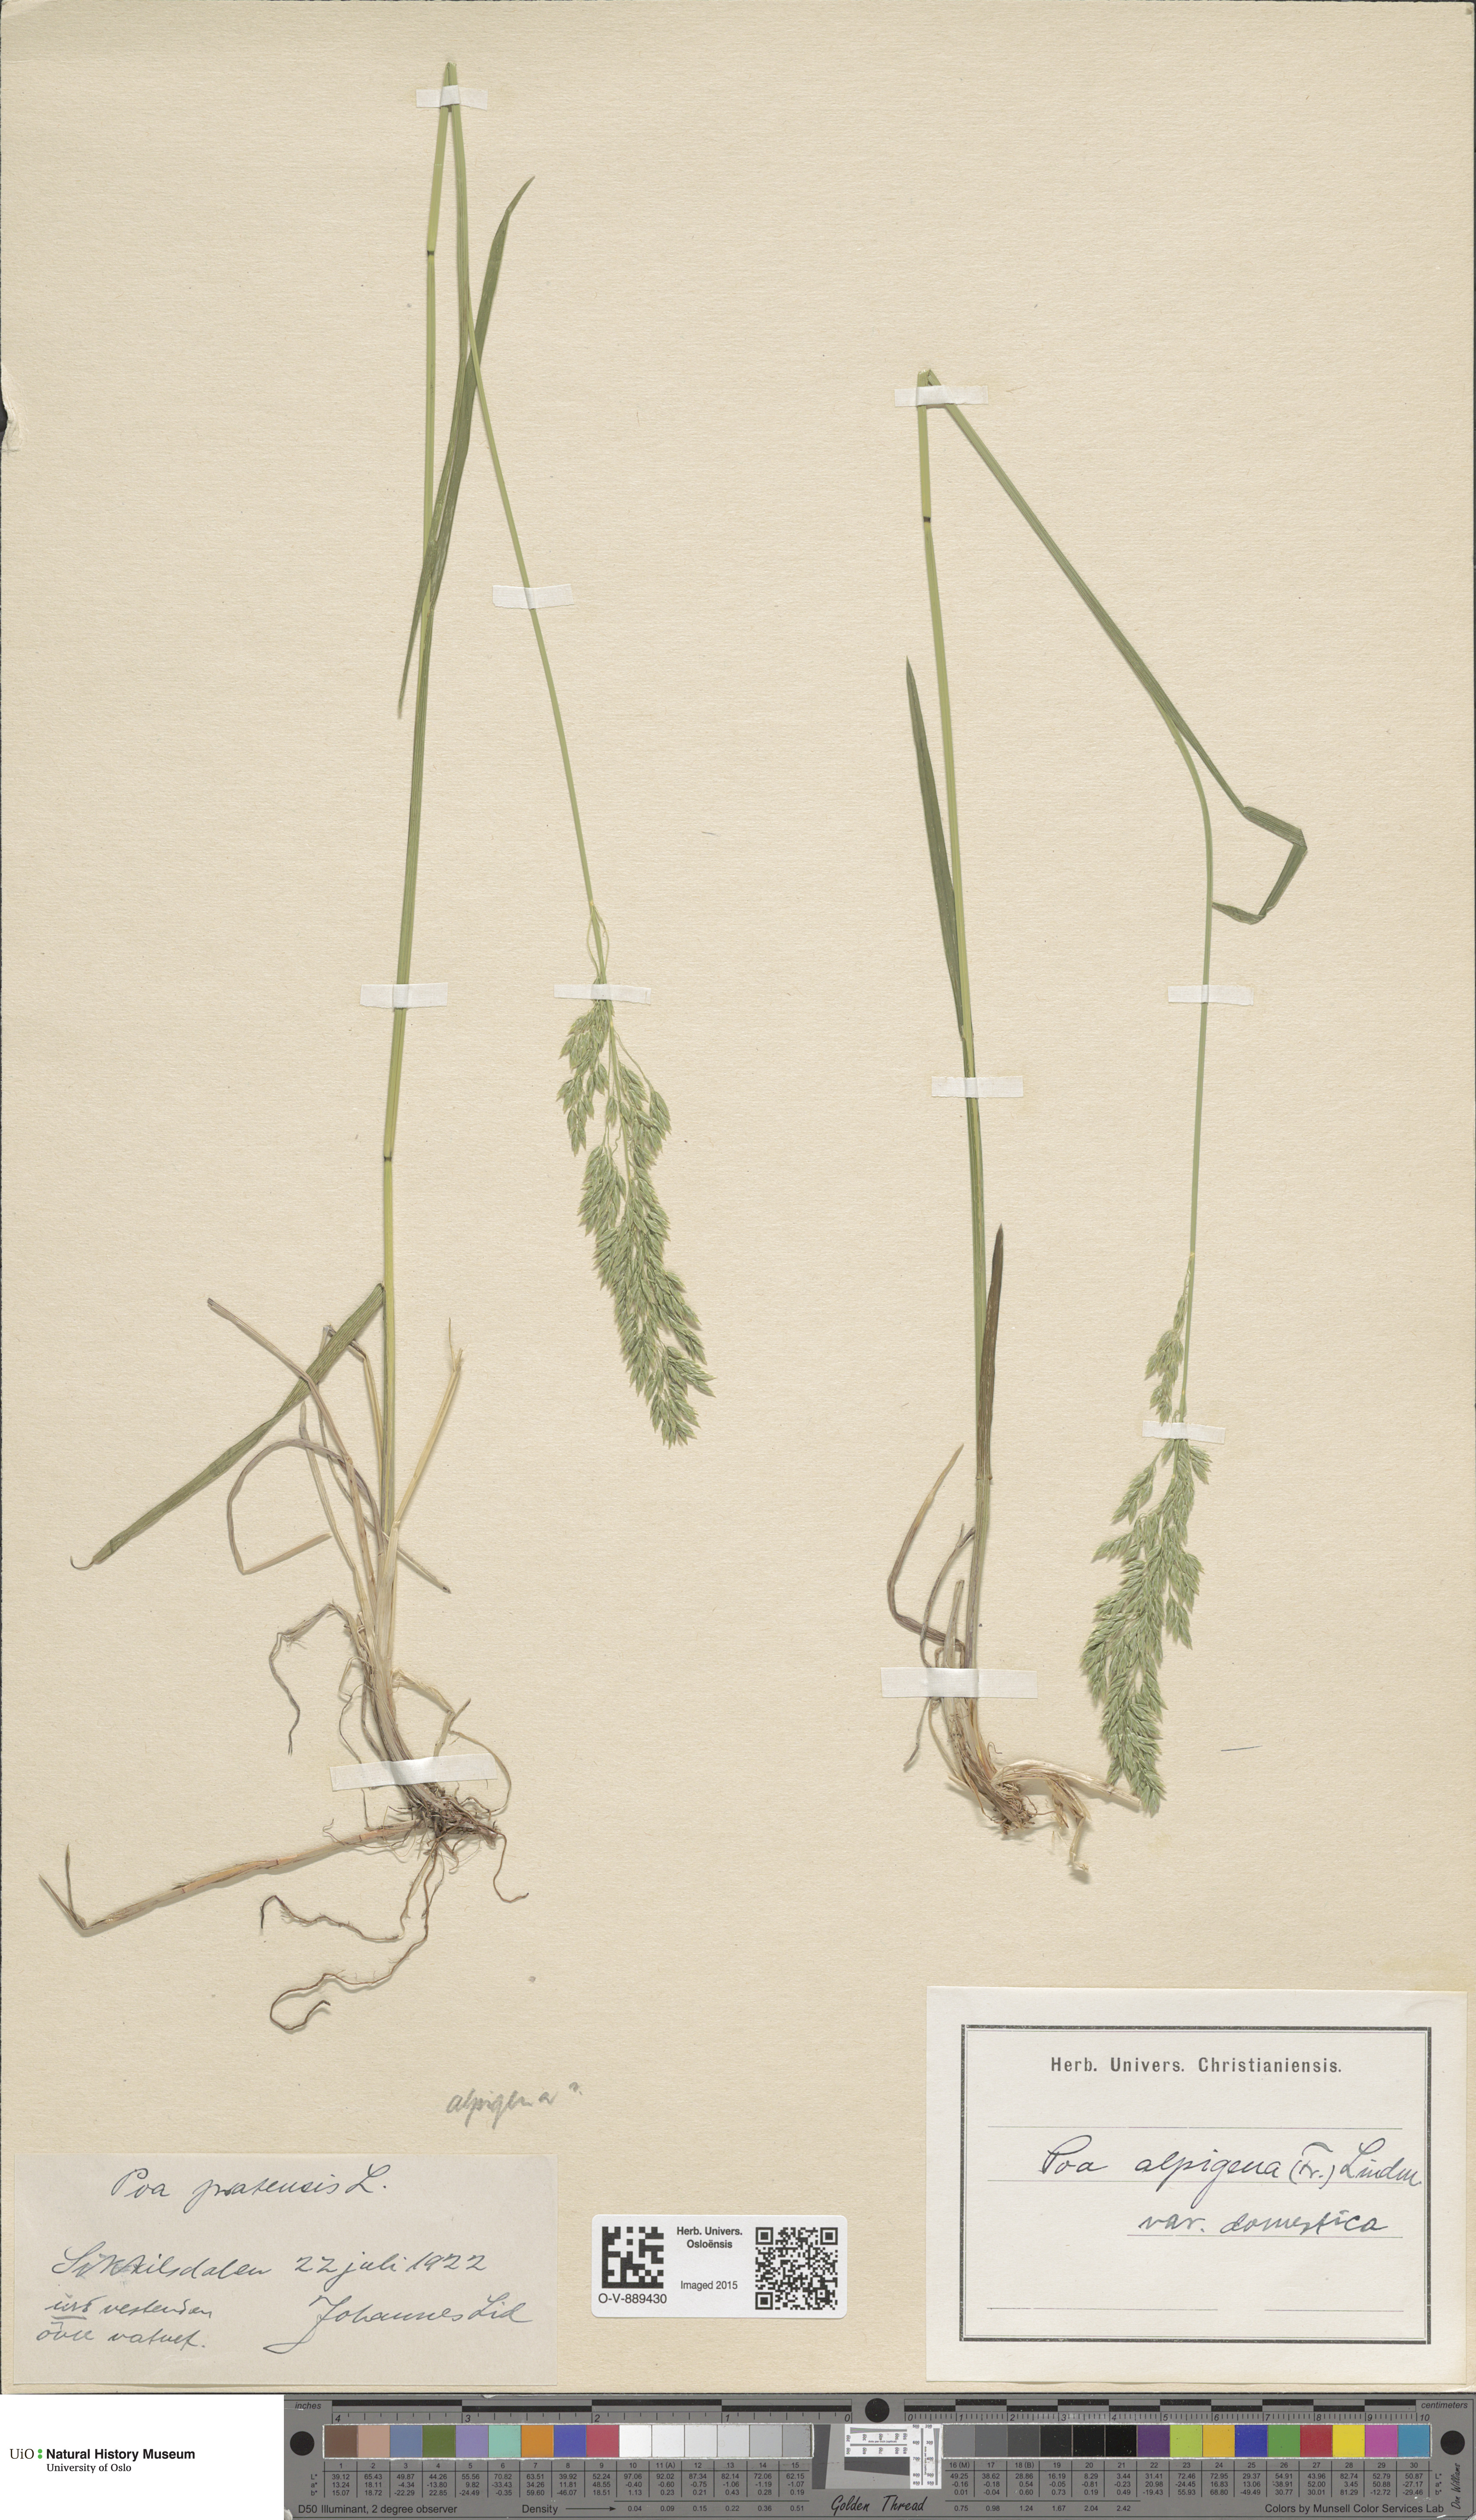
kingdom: Plantae
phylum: Tracheophyta
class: Liliopsida
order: Poales
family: Poaceae
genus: Poa
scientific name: Poa pratensis
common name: Kentucky bluegrass
